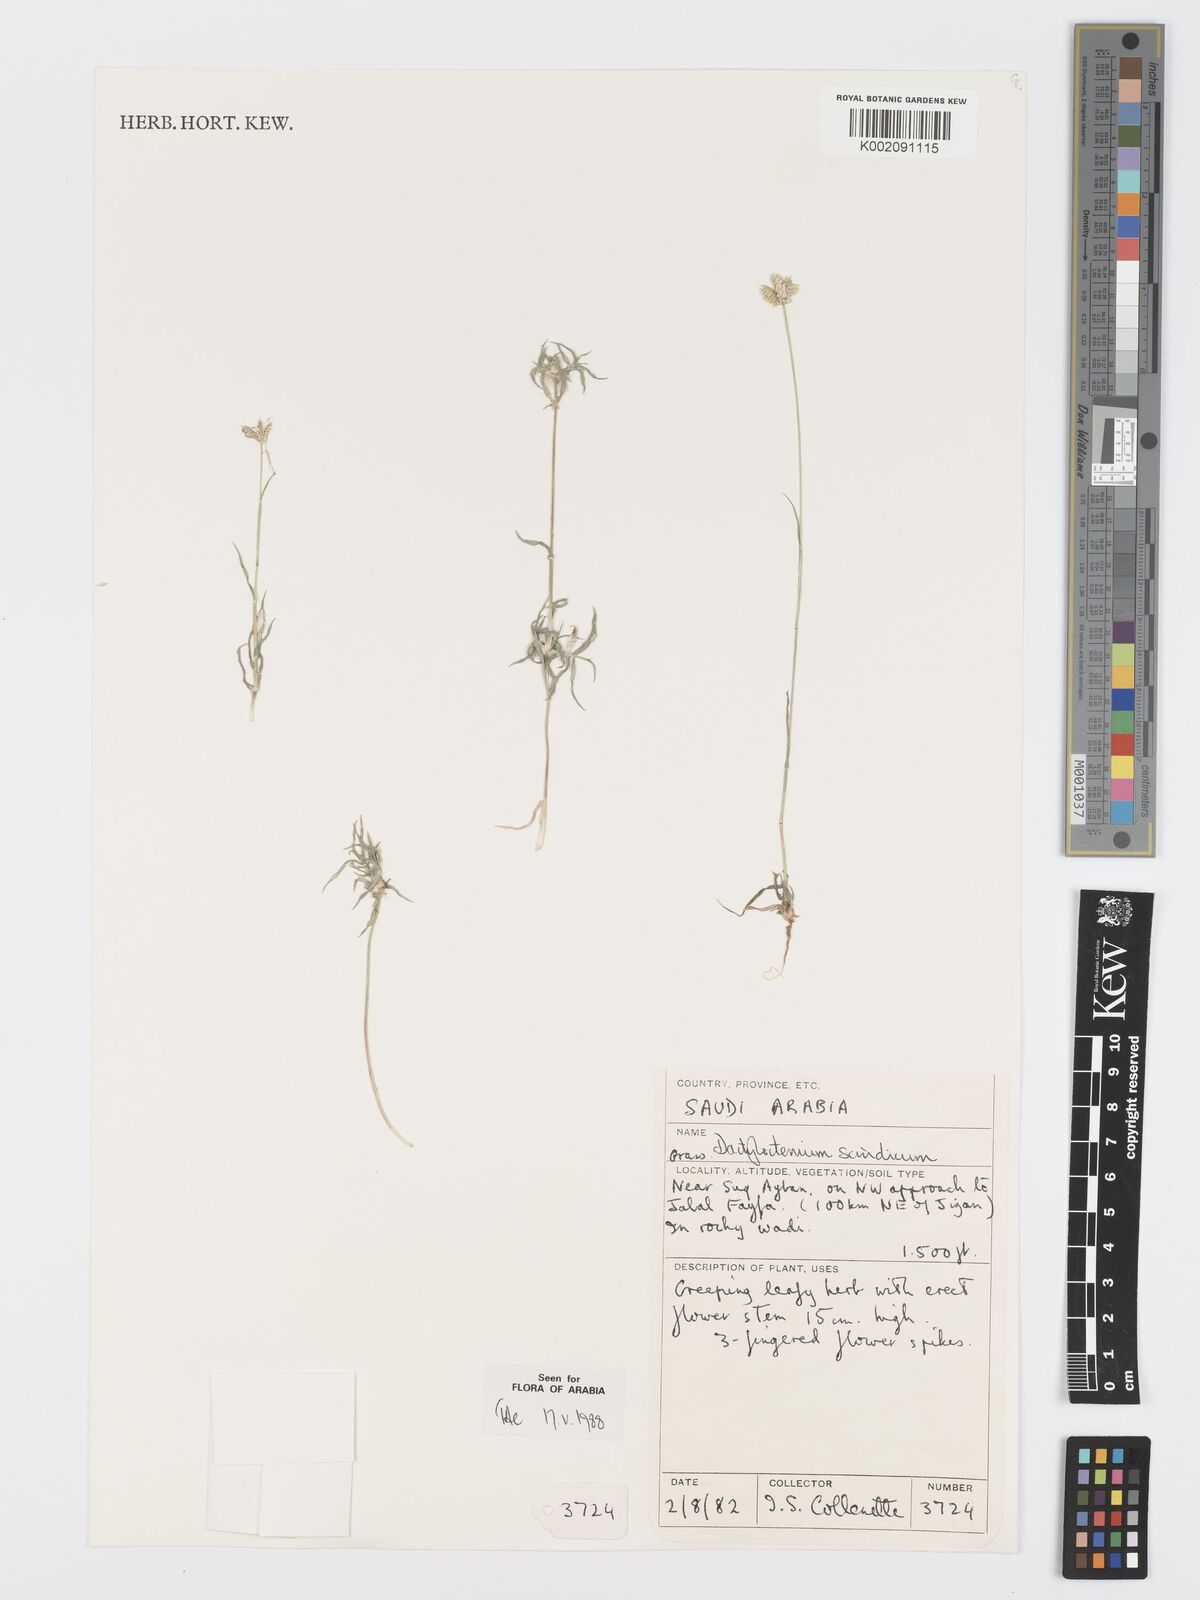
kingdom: Plantae
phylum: Tracheophyta
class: Liliopsida
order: Poales
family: Poaceae
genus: Dactyloctenium
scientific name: Dactyloctenium scindicum
